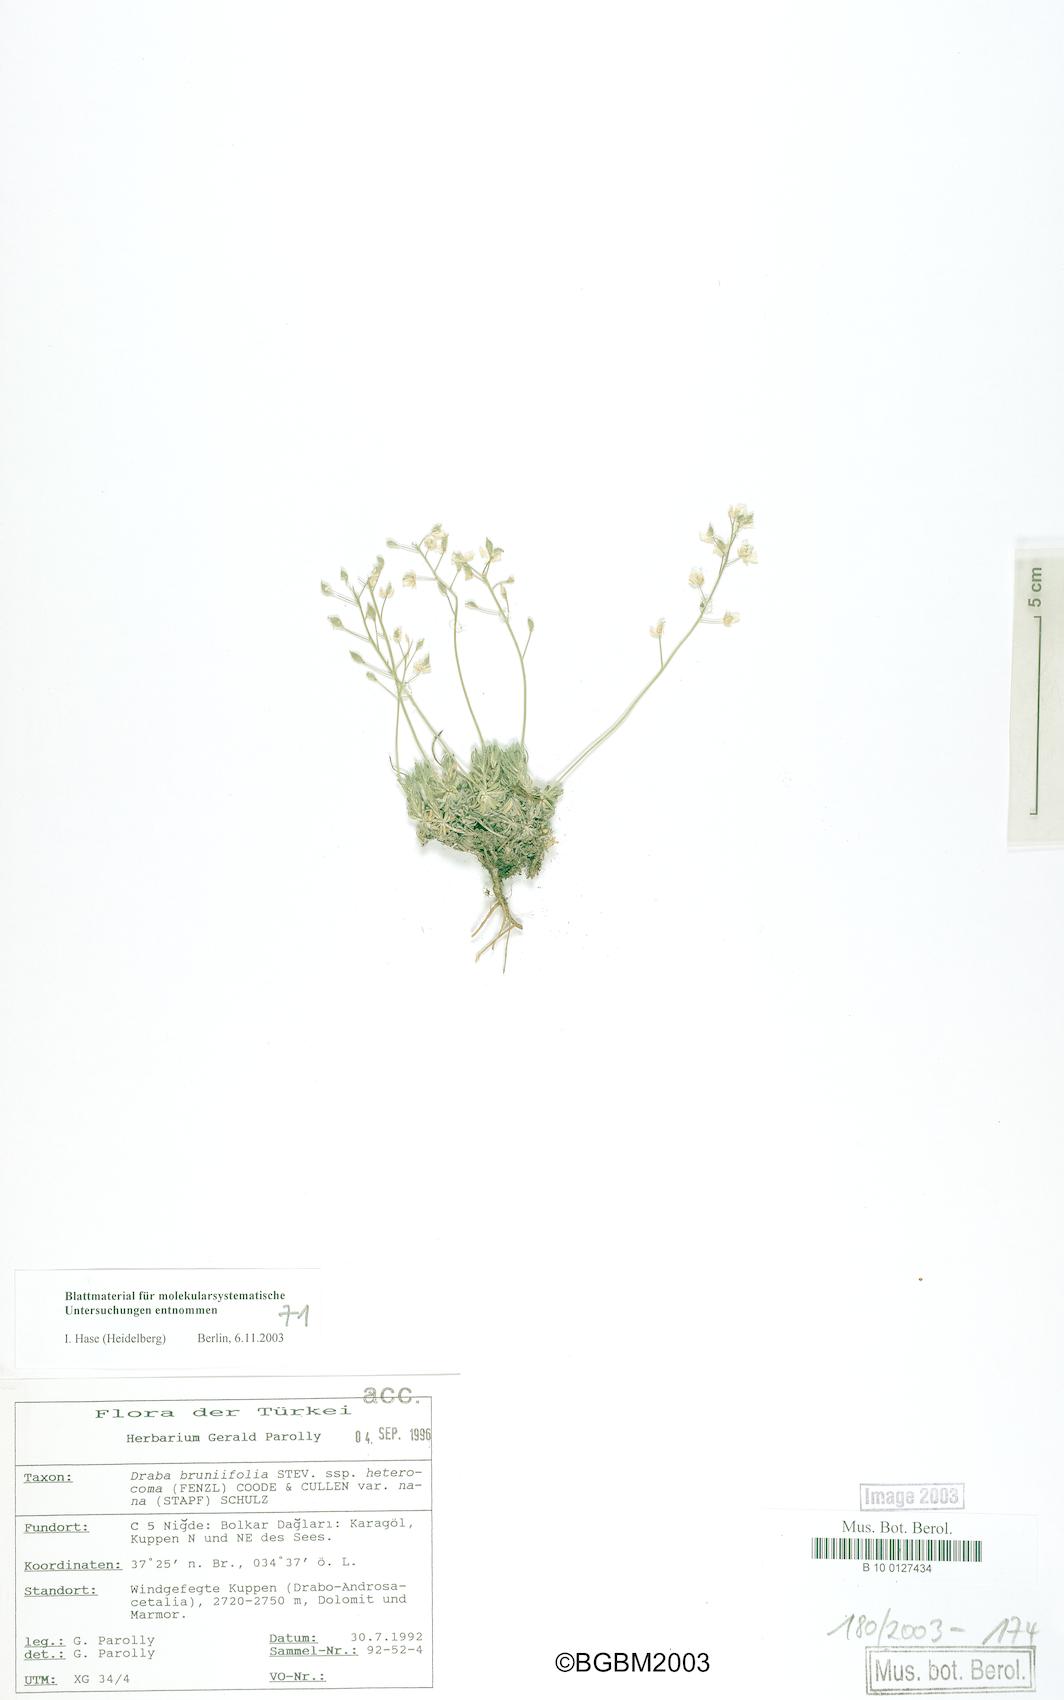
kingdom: Plantae
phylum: Tracheophyta
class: Magnoliopsida
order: Brassicales
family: Brassicaceae
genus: Draba
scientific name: Draba heterocoma
